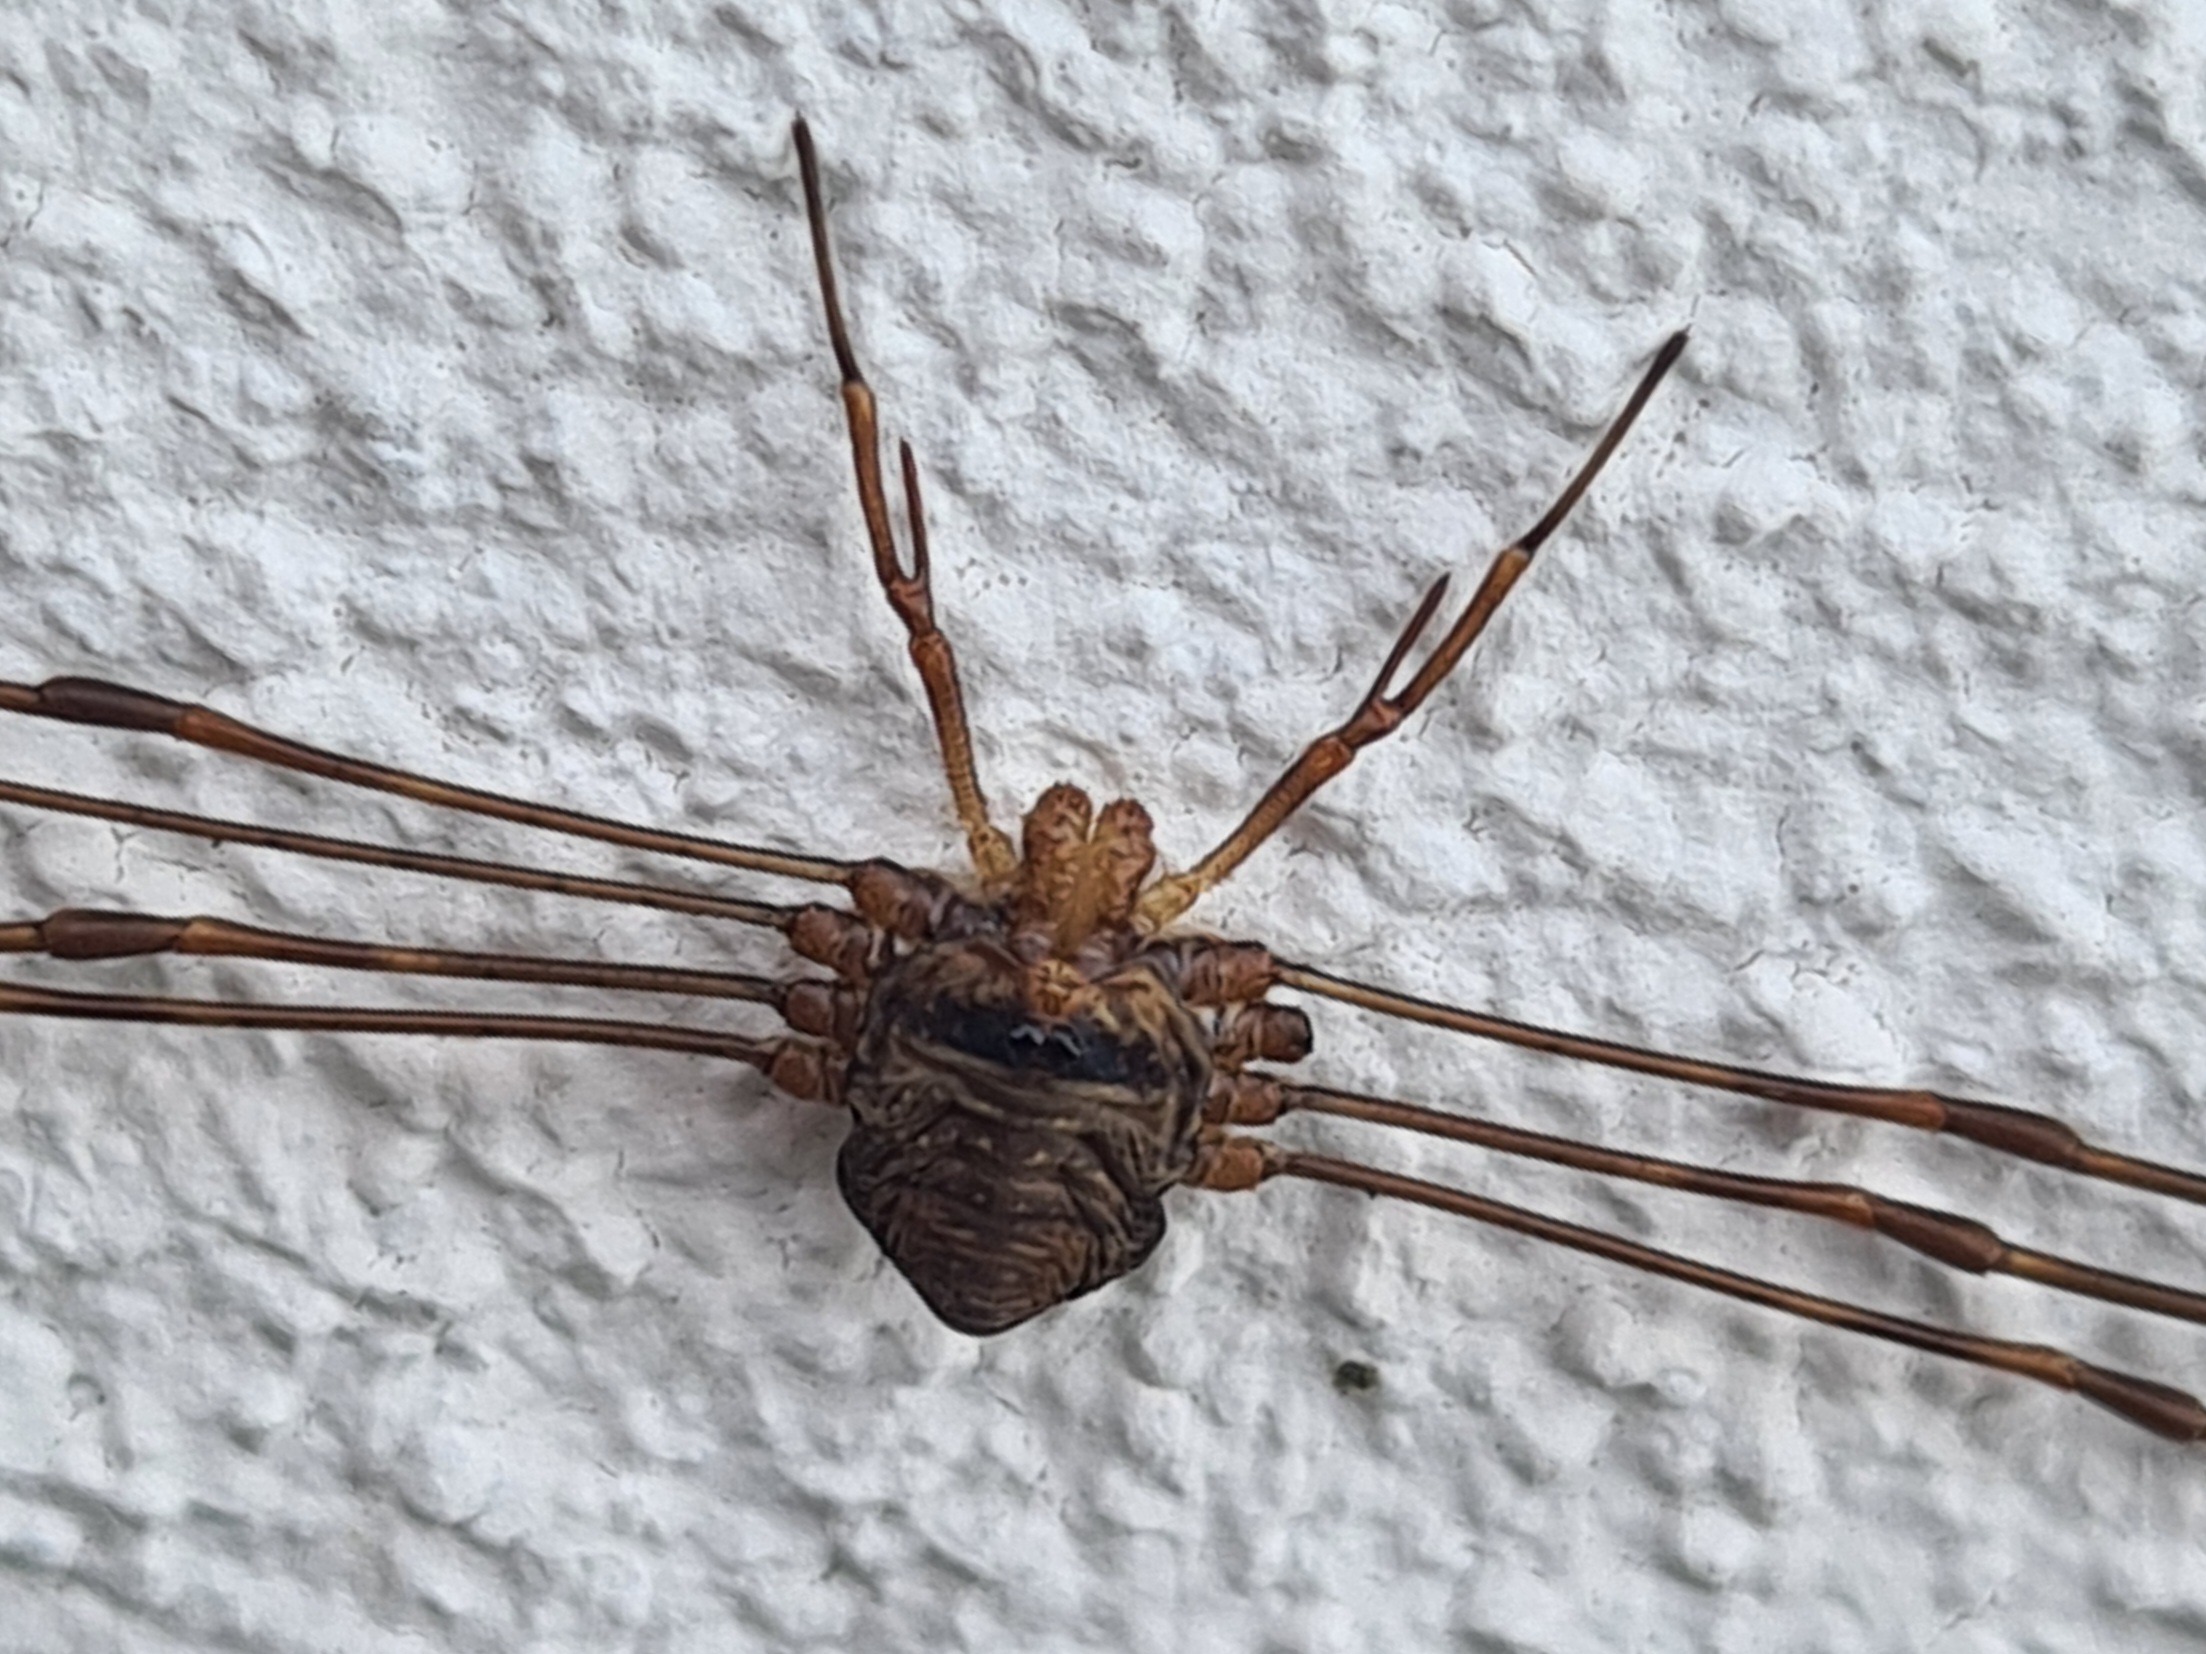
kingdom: Animalia
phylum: Arthropoda
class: Arachnida
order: Opiliones
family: Phalangiidae
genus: Dicranopalpus
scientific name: Dicranopalpus ramosus
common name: Gaffelmejer
